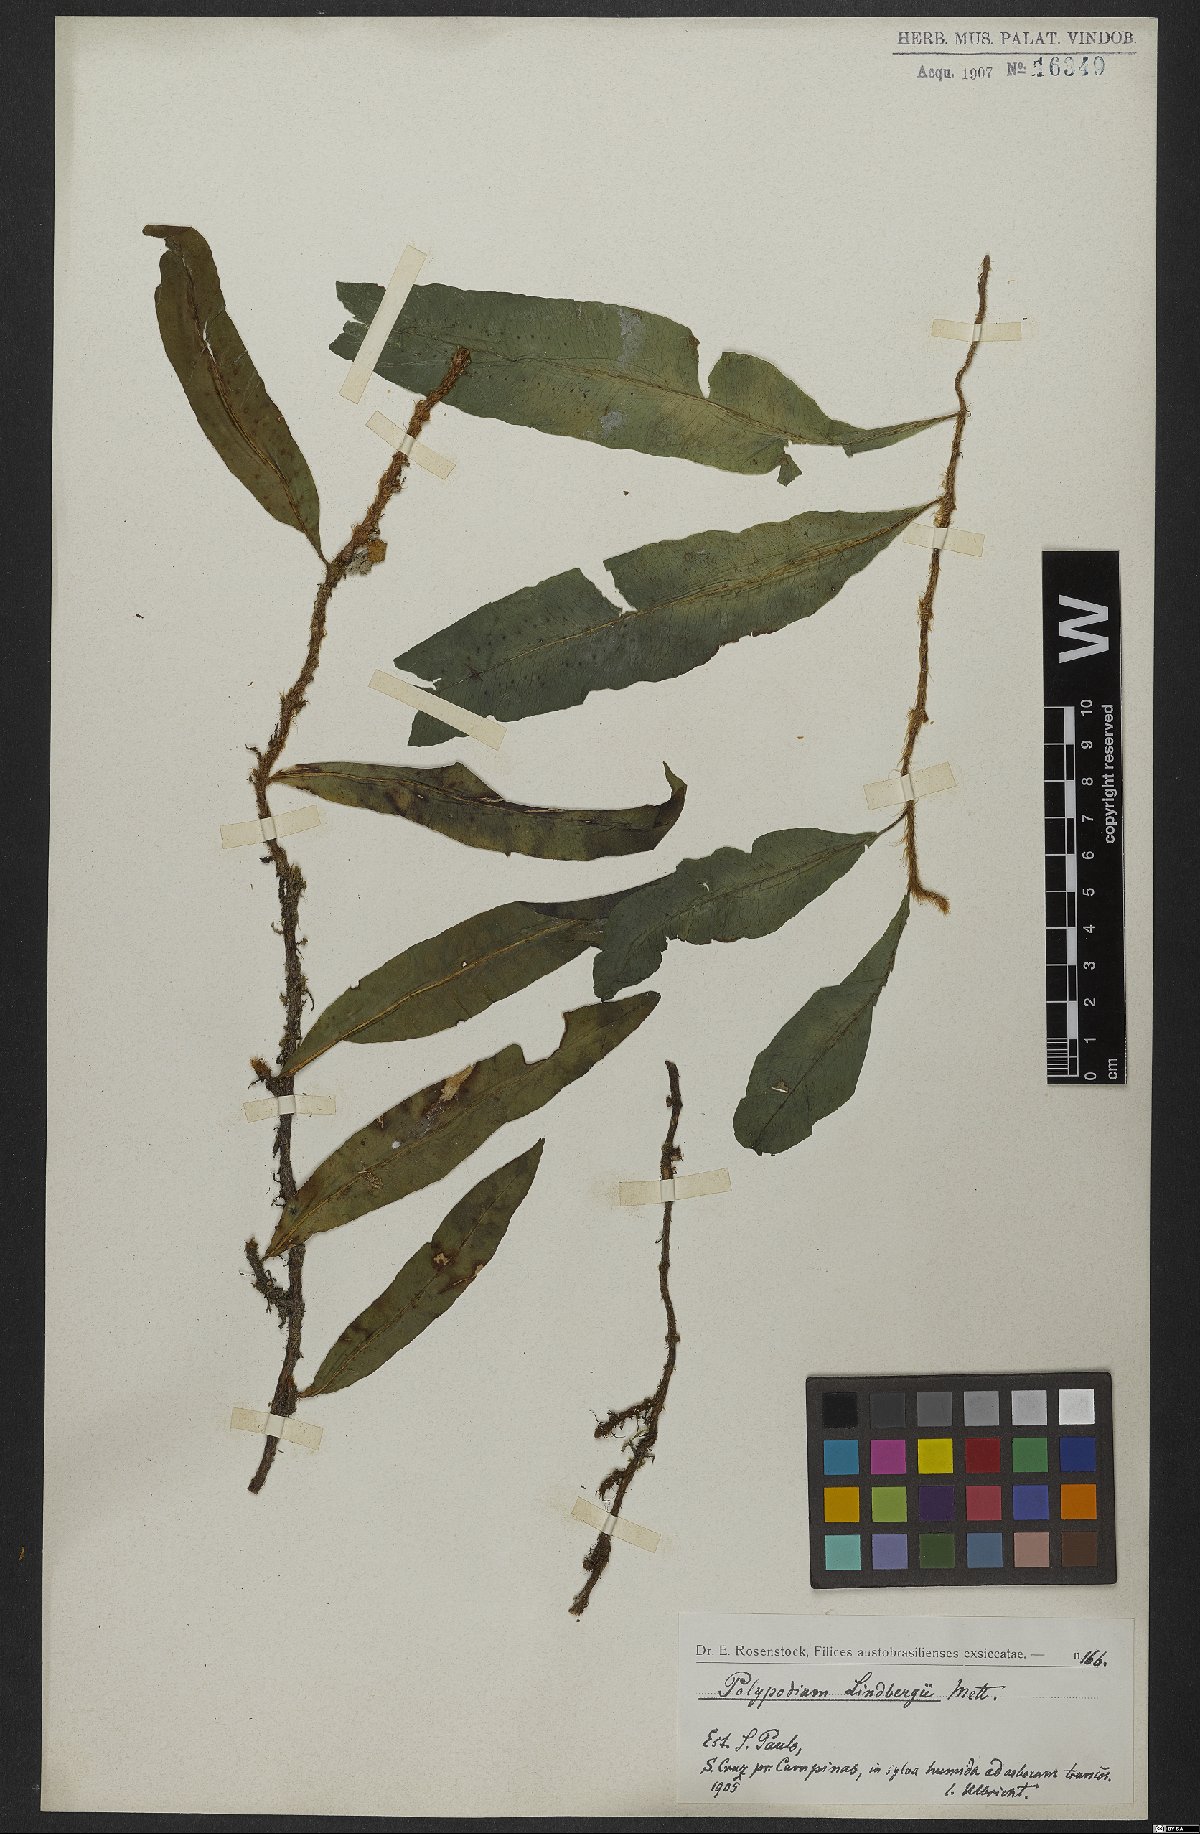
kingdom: Plantae
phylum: Tracheophyta
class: Polypodiopsida
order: Polypodiales
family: Polypodiaceae
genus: Microgramma
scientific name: Microgramma lindbergii
